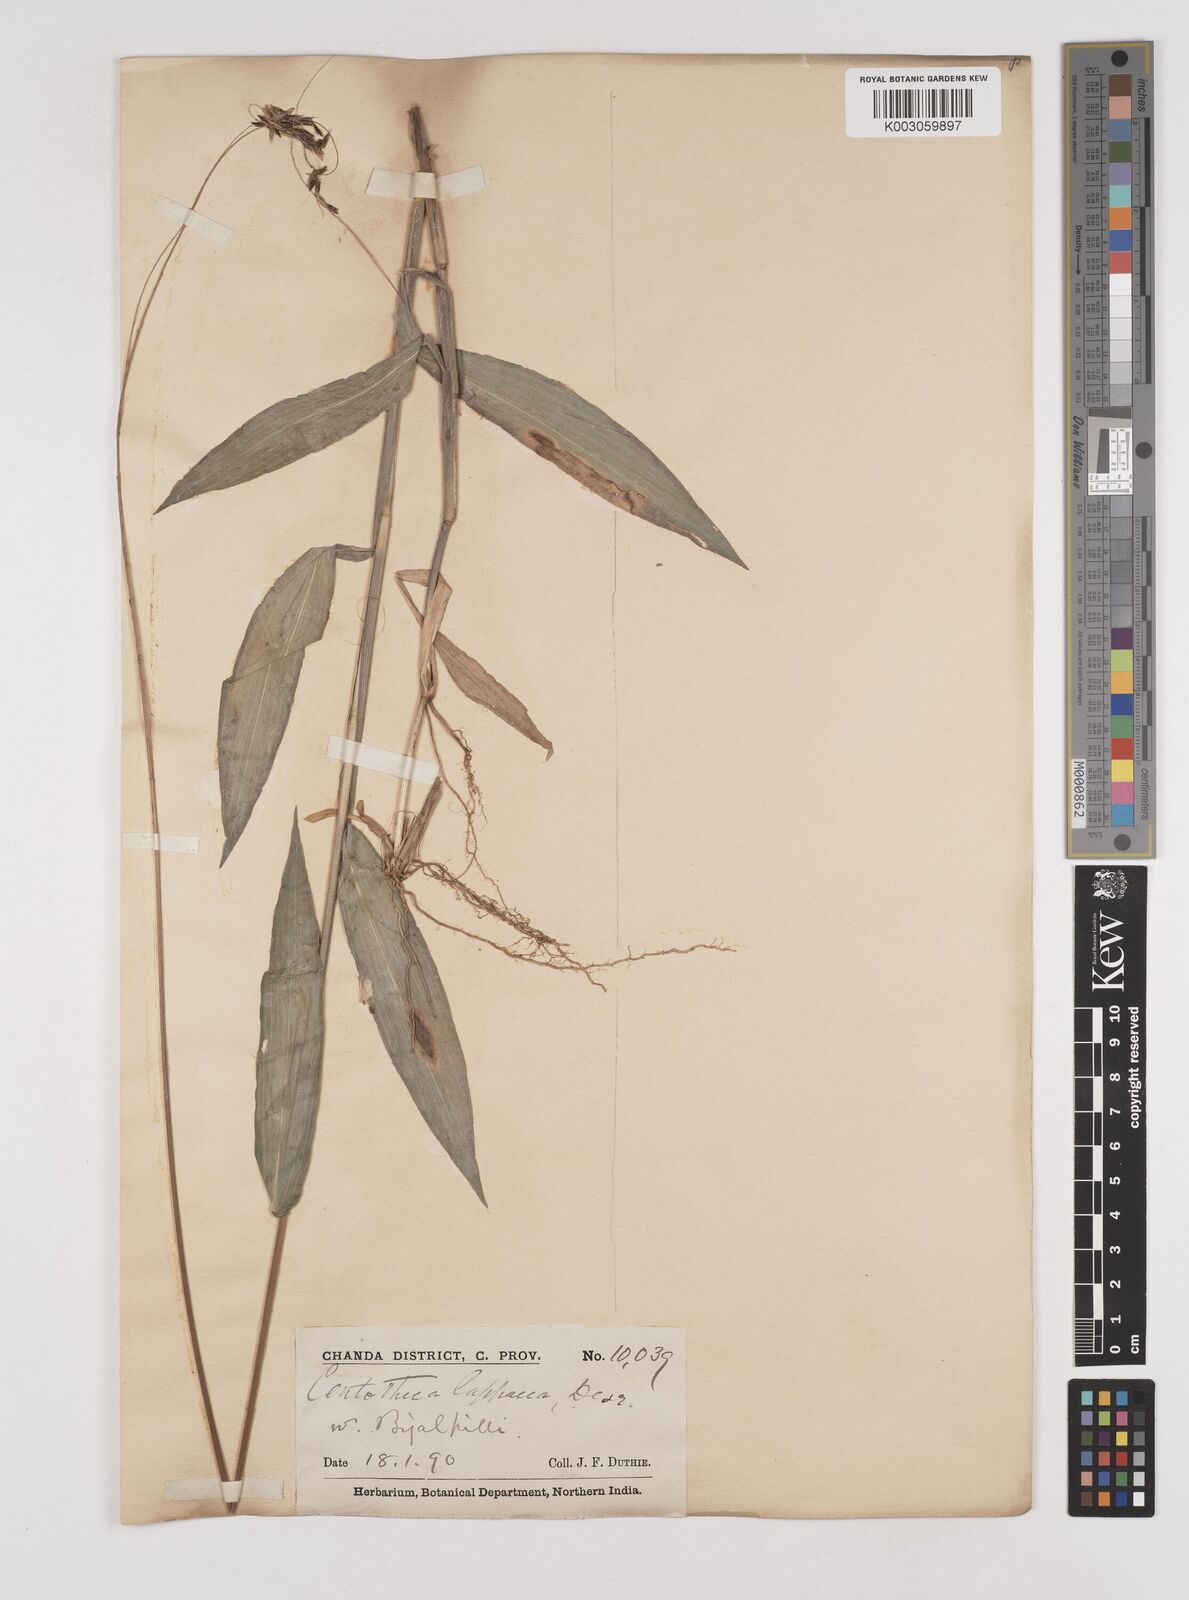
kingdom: Plantae
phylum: Tracheophyta
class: Liliopsida
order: Poales
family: Poaceae
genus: Centotheca
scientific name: Centotheca lappacea
